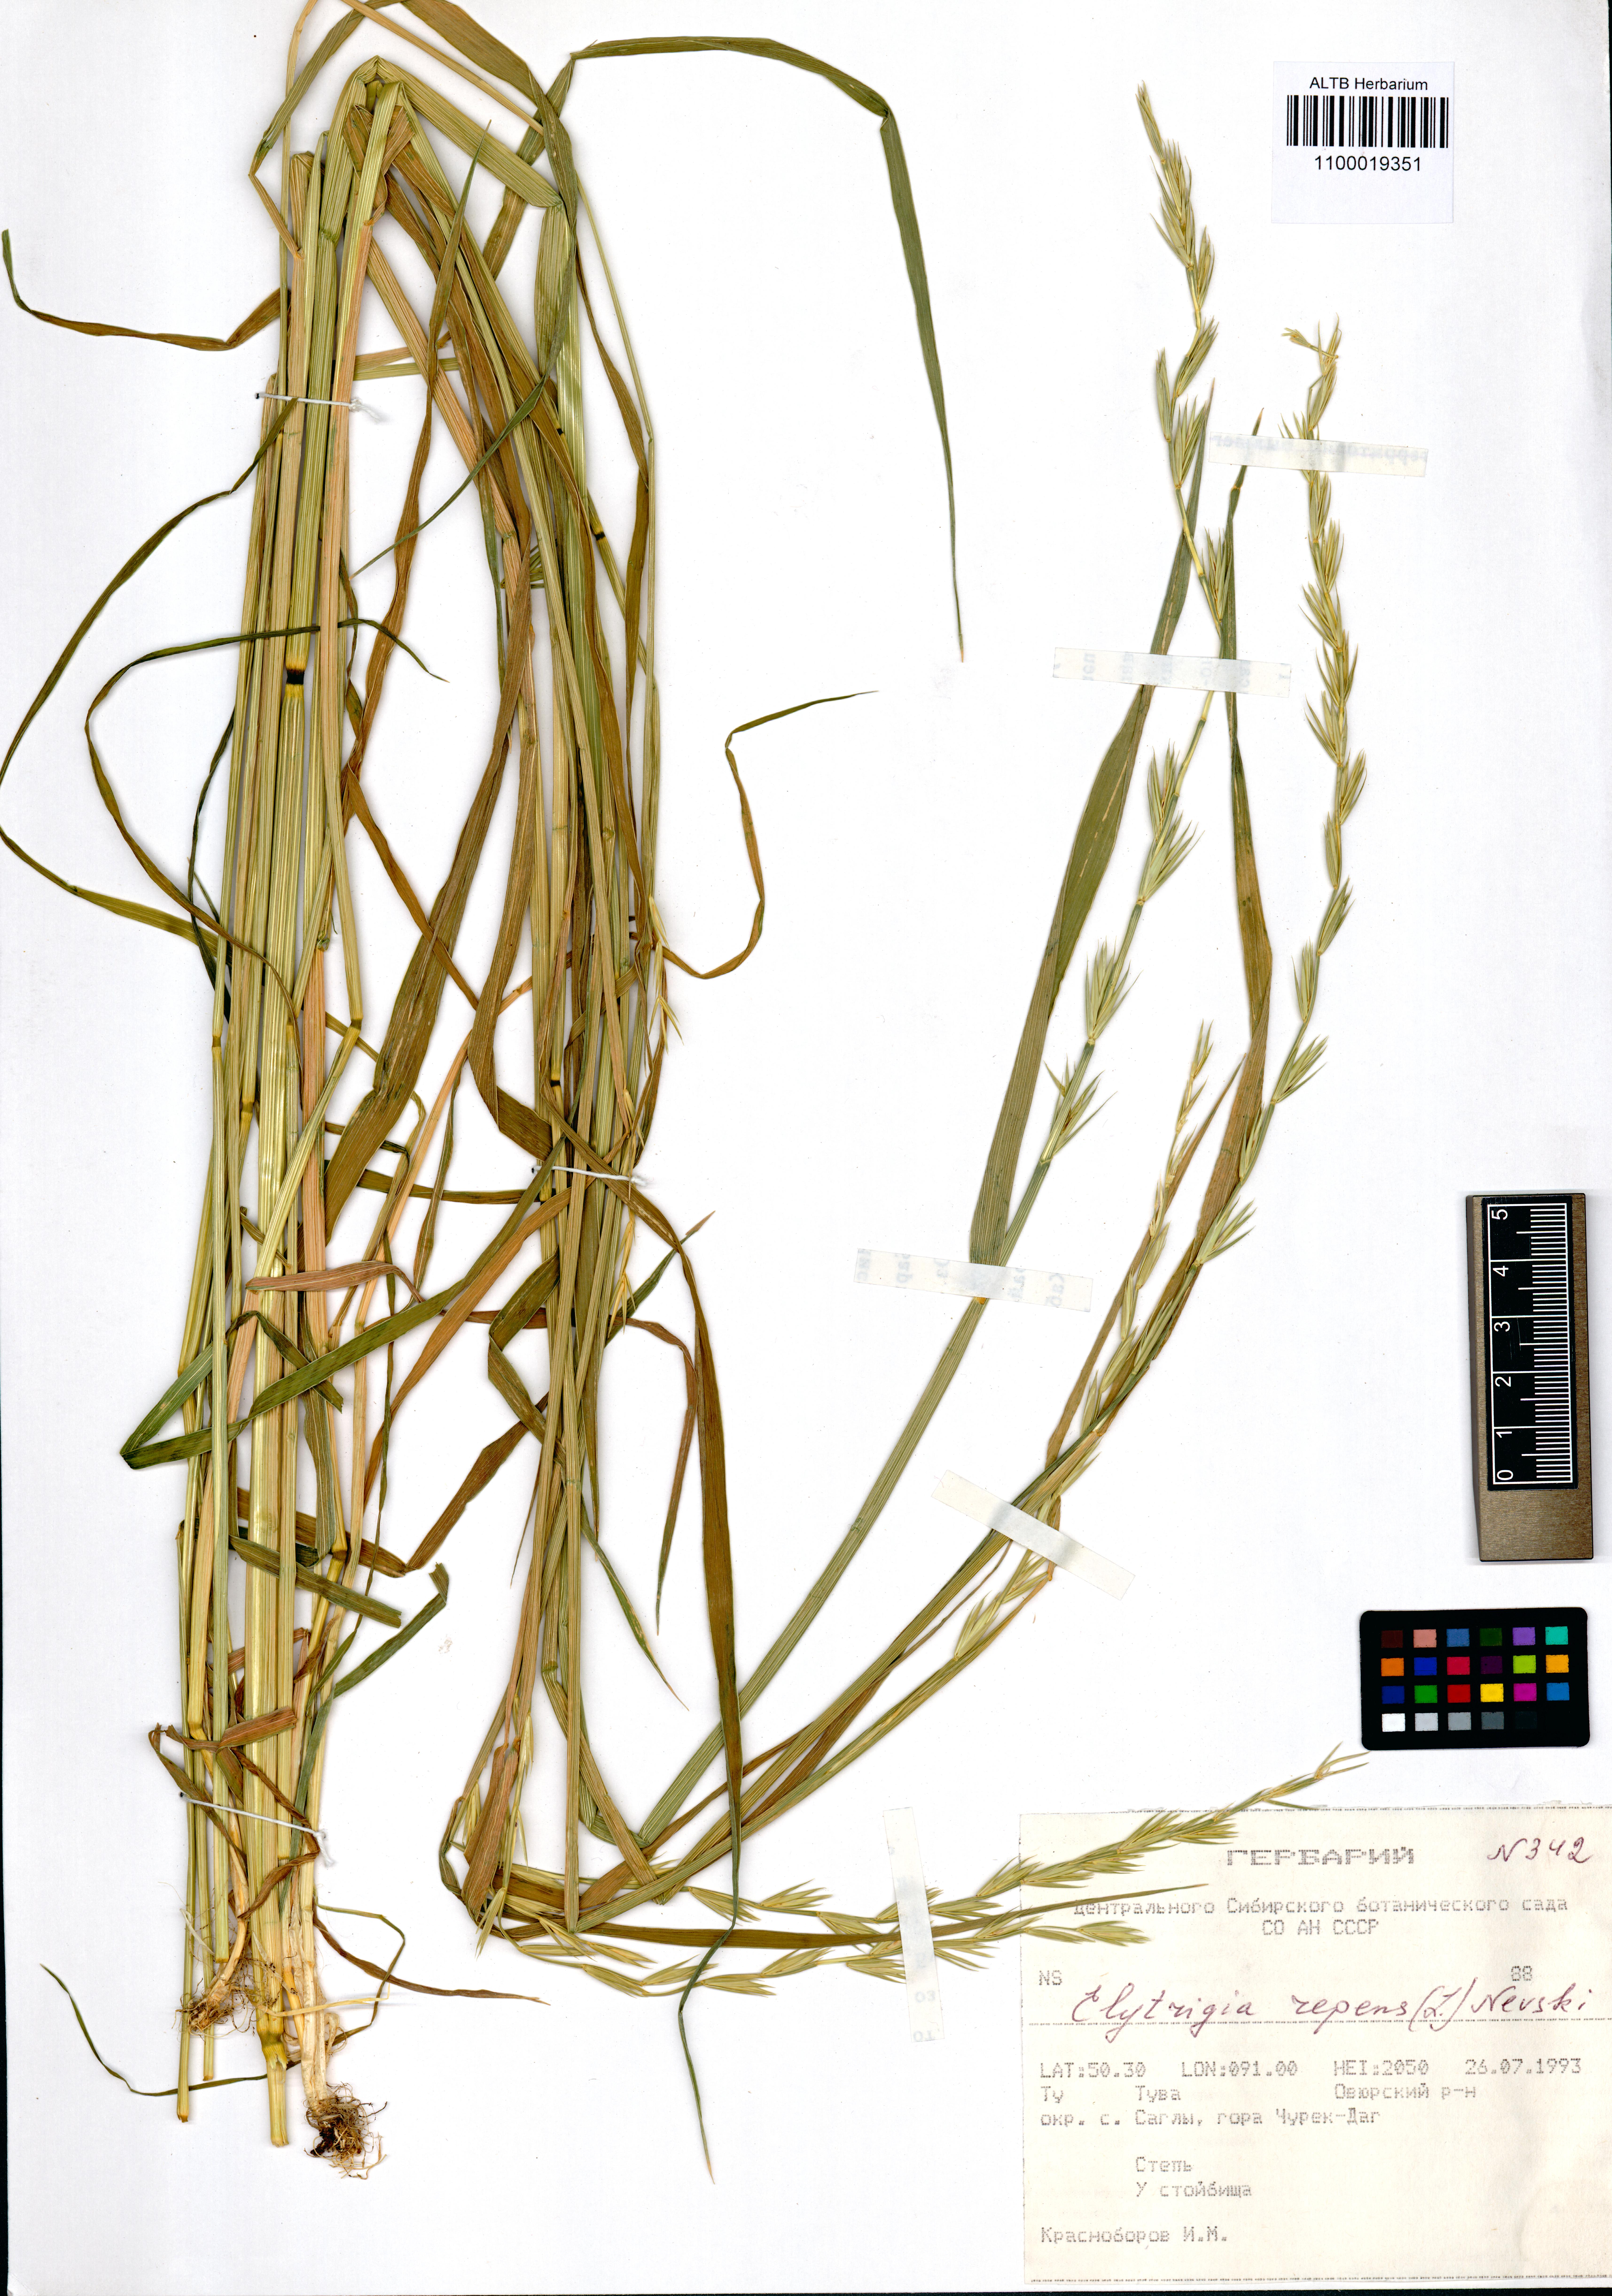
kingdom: Plantae
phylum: Tracheophyta
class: Liliopsida
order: Poales
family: Poaceae
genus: Elymus
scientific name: Elymus repens
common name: Quackgrass
